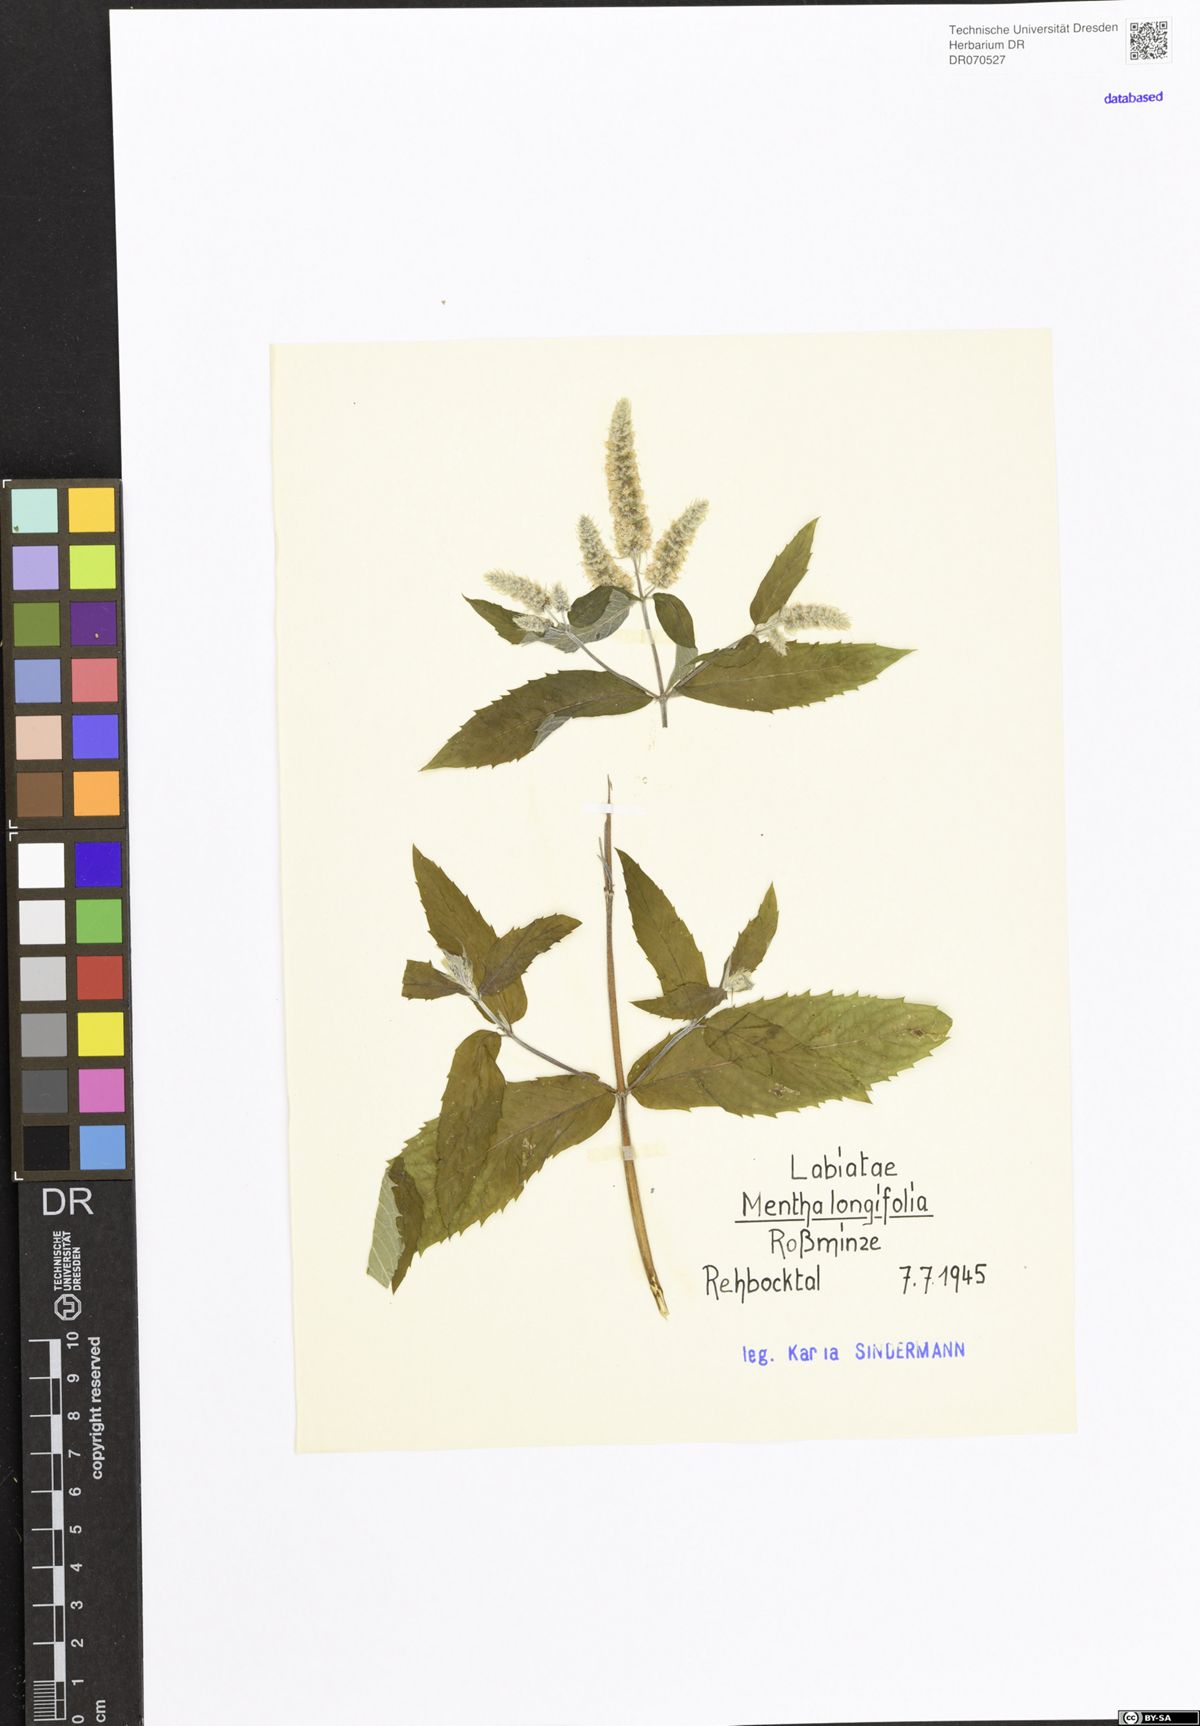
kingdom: Plantae
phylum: Tracheophyta
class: Magnoliopsida
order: Lamiales
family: Lamiaceae
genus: Mentha
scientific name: Mentha longifolia
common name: Horse mint
